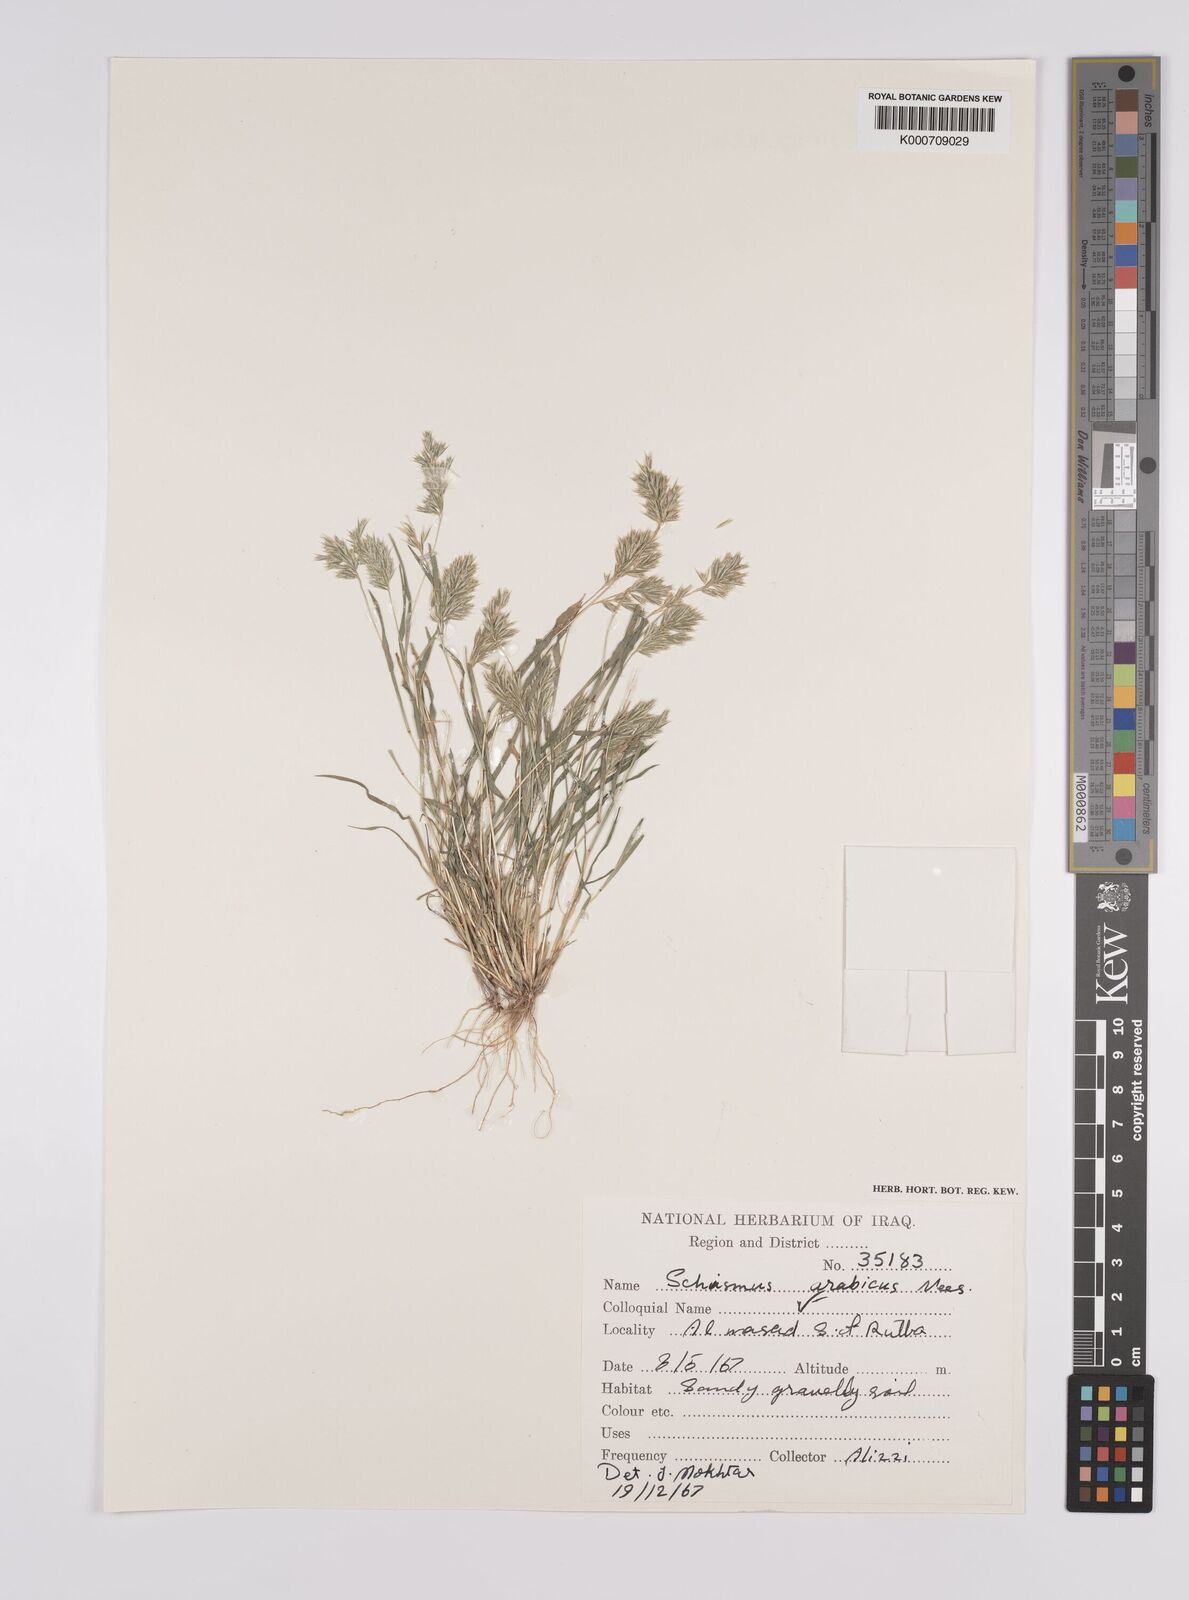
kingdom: Plantae
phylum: Tracheophyta
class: Liliopsida
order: Poales
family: Poaceae
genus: Schismus
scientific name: Schismus arabicus
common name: Arabian schismus
